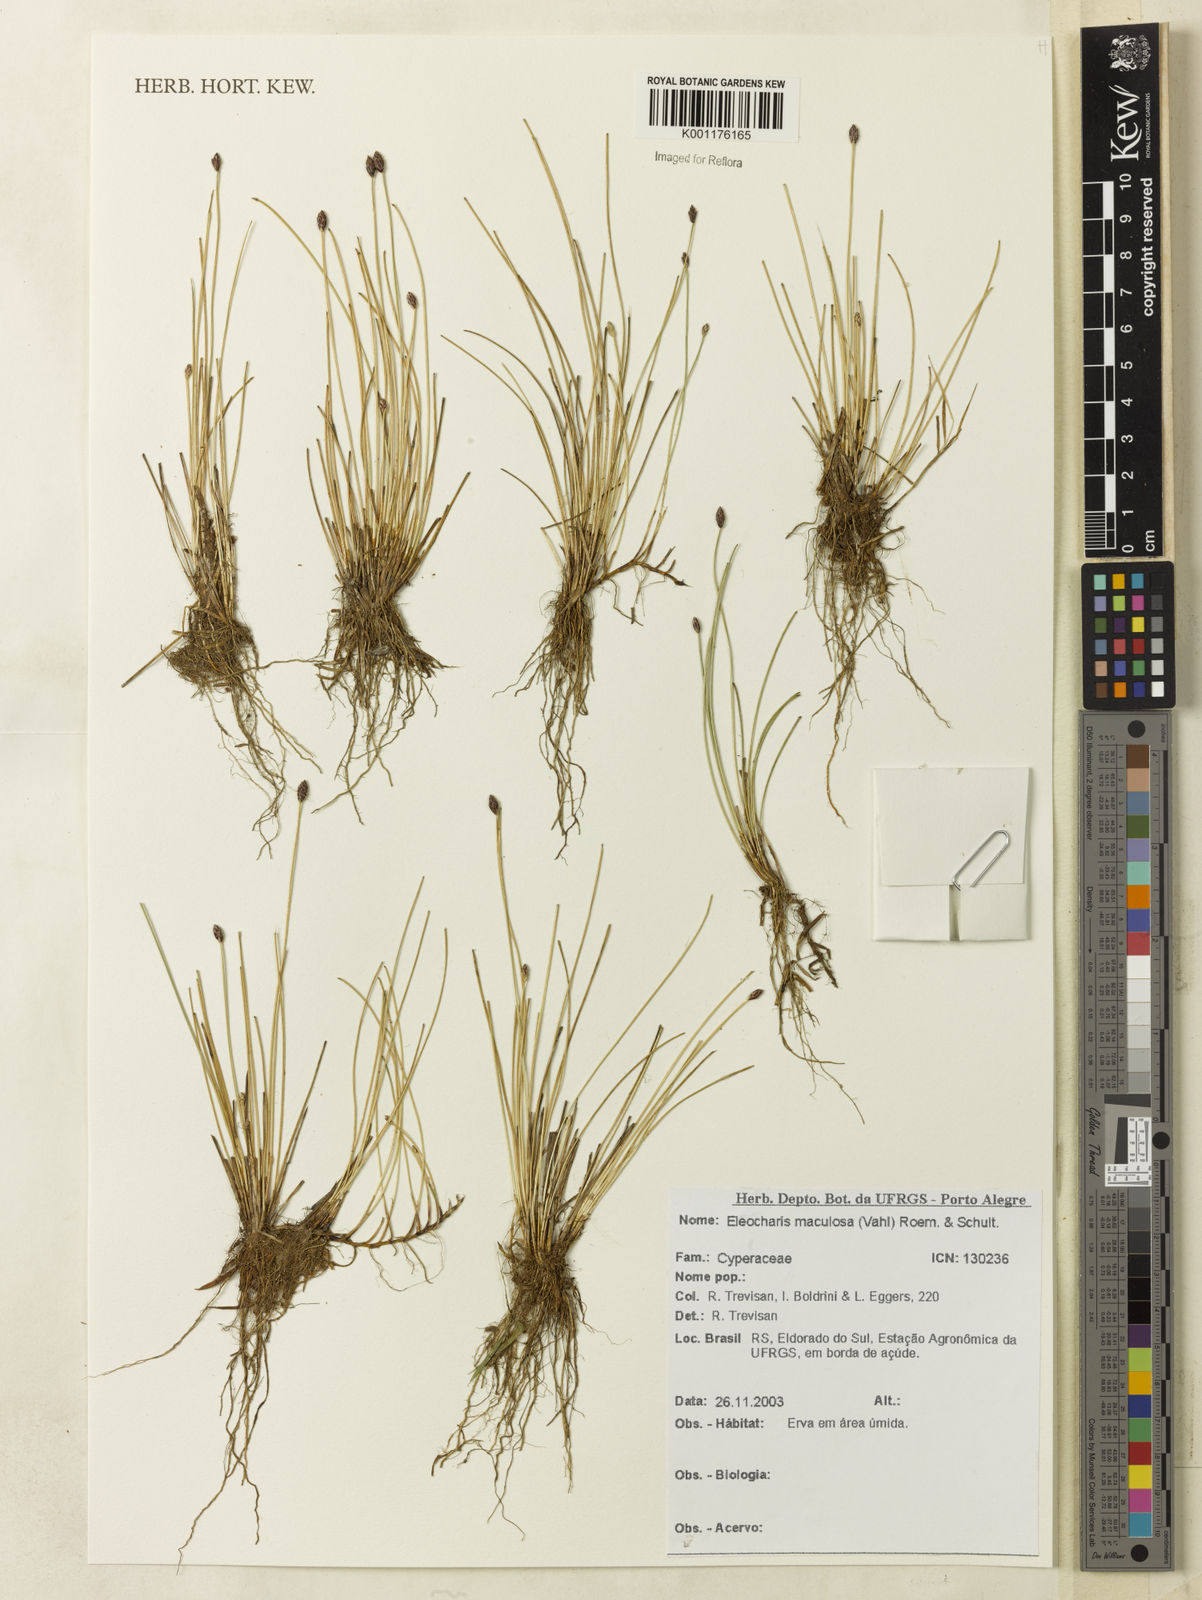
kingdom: Plantae
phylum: Tracheophyta
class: Liliopsida
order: Poales
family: Cyperaceae
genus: Eleocharis
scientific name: Eleocharis maculosa
